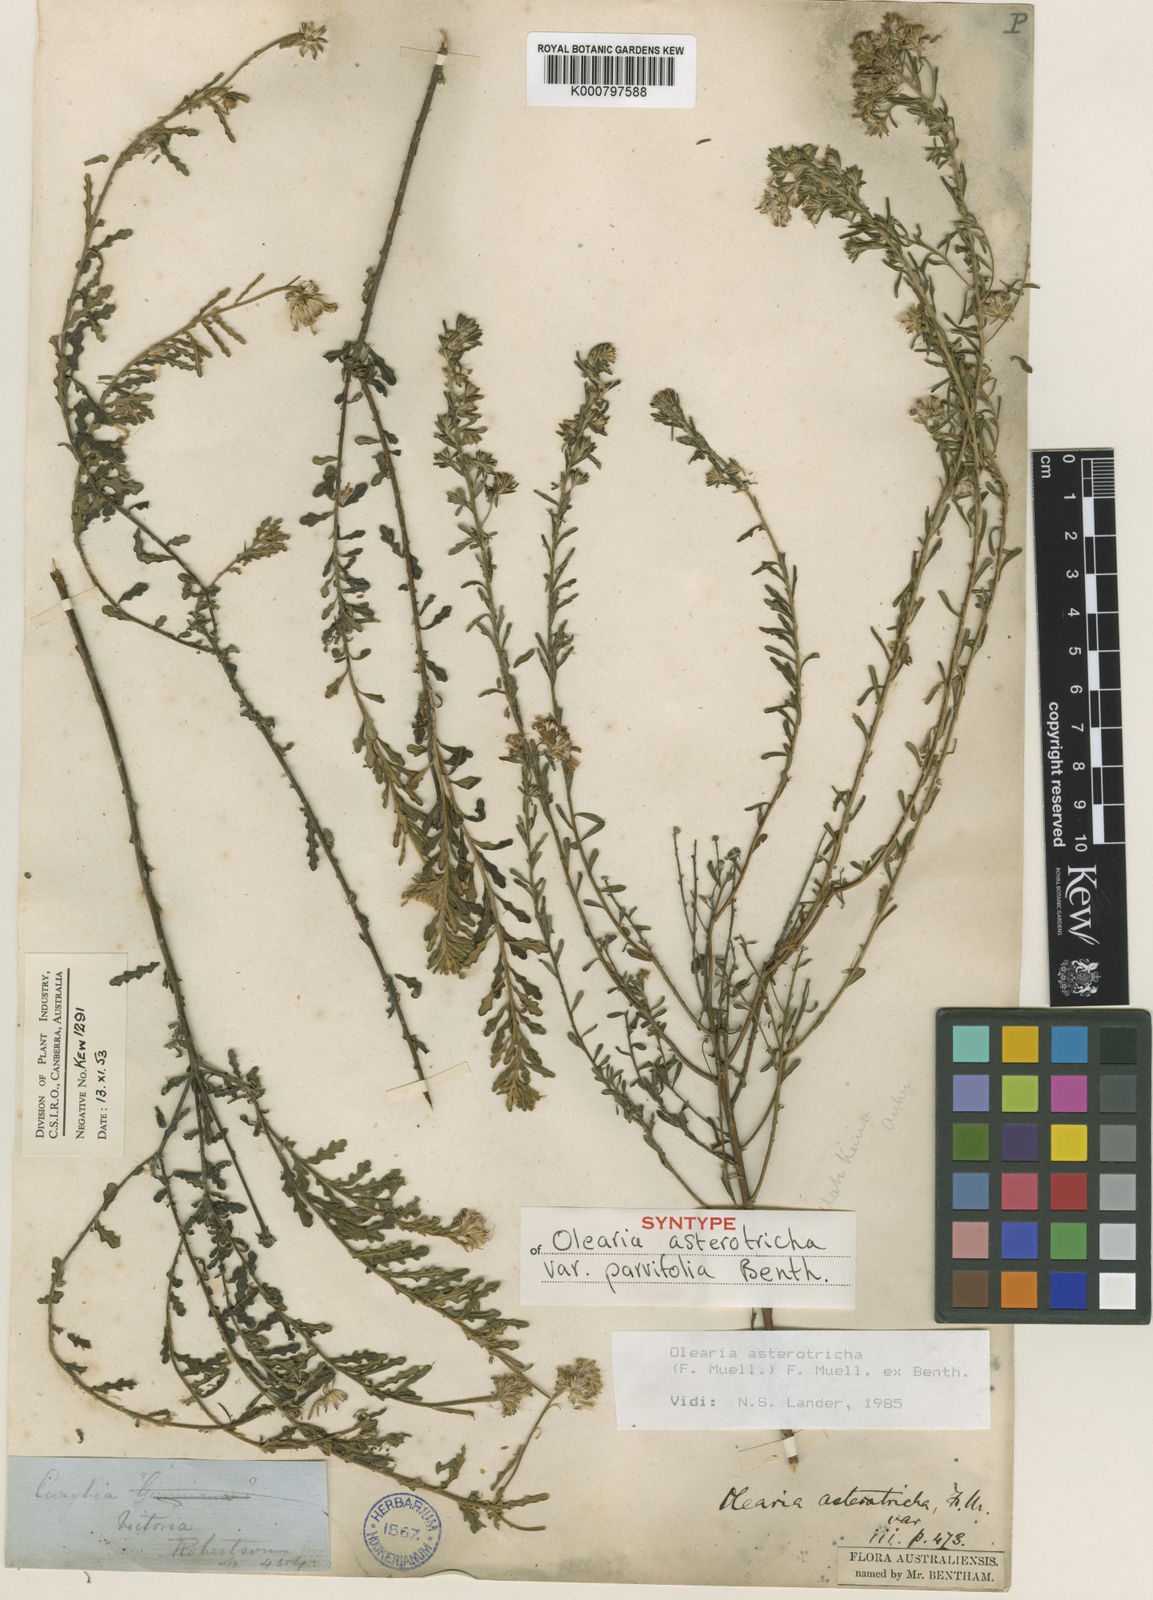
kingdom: Plantae
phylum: Tracheophyta
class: Magnoliopsida
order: Asterales
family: Asteraceae
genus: Olearia
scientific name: Olearia asterotricha
